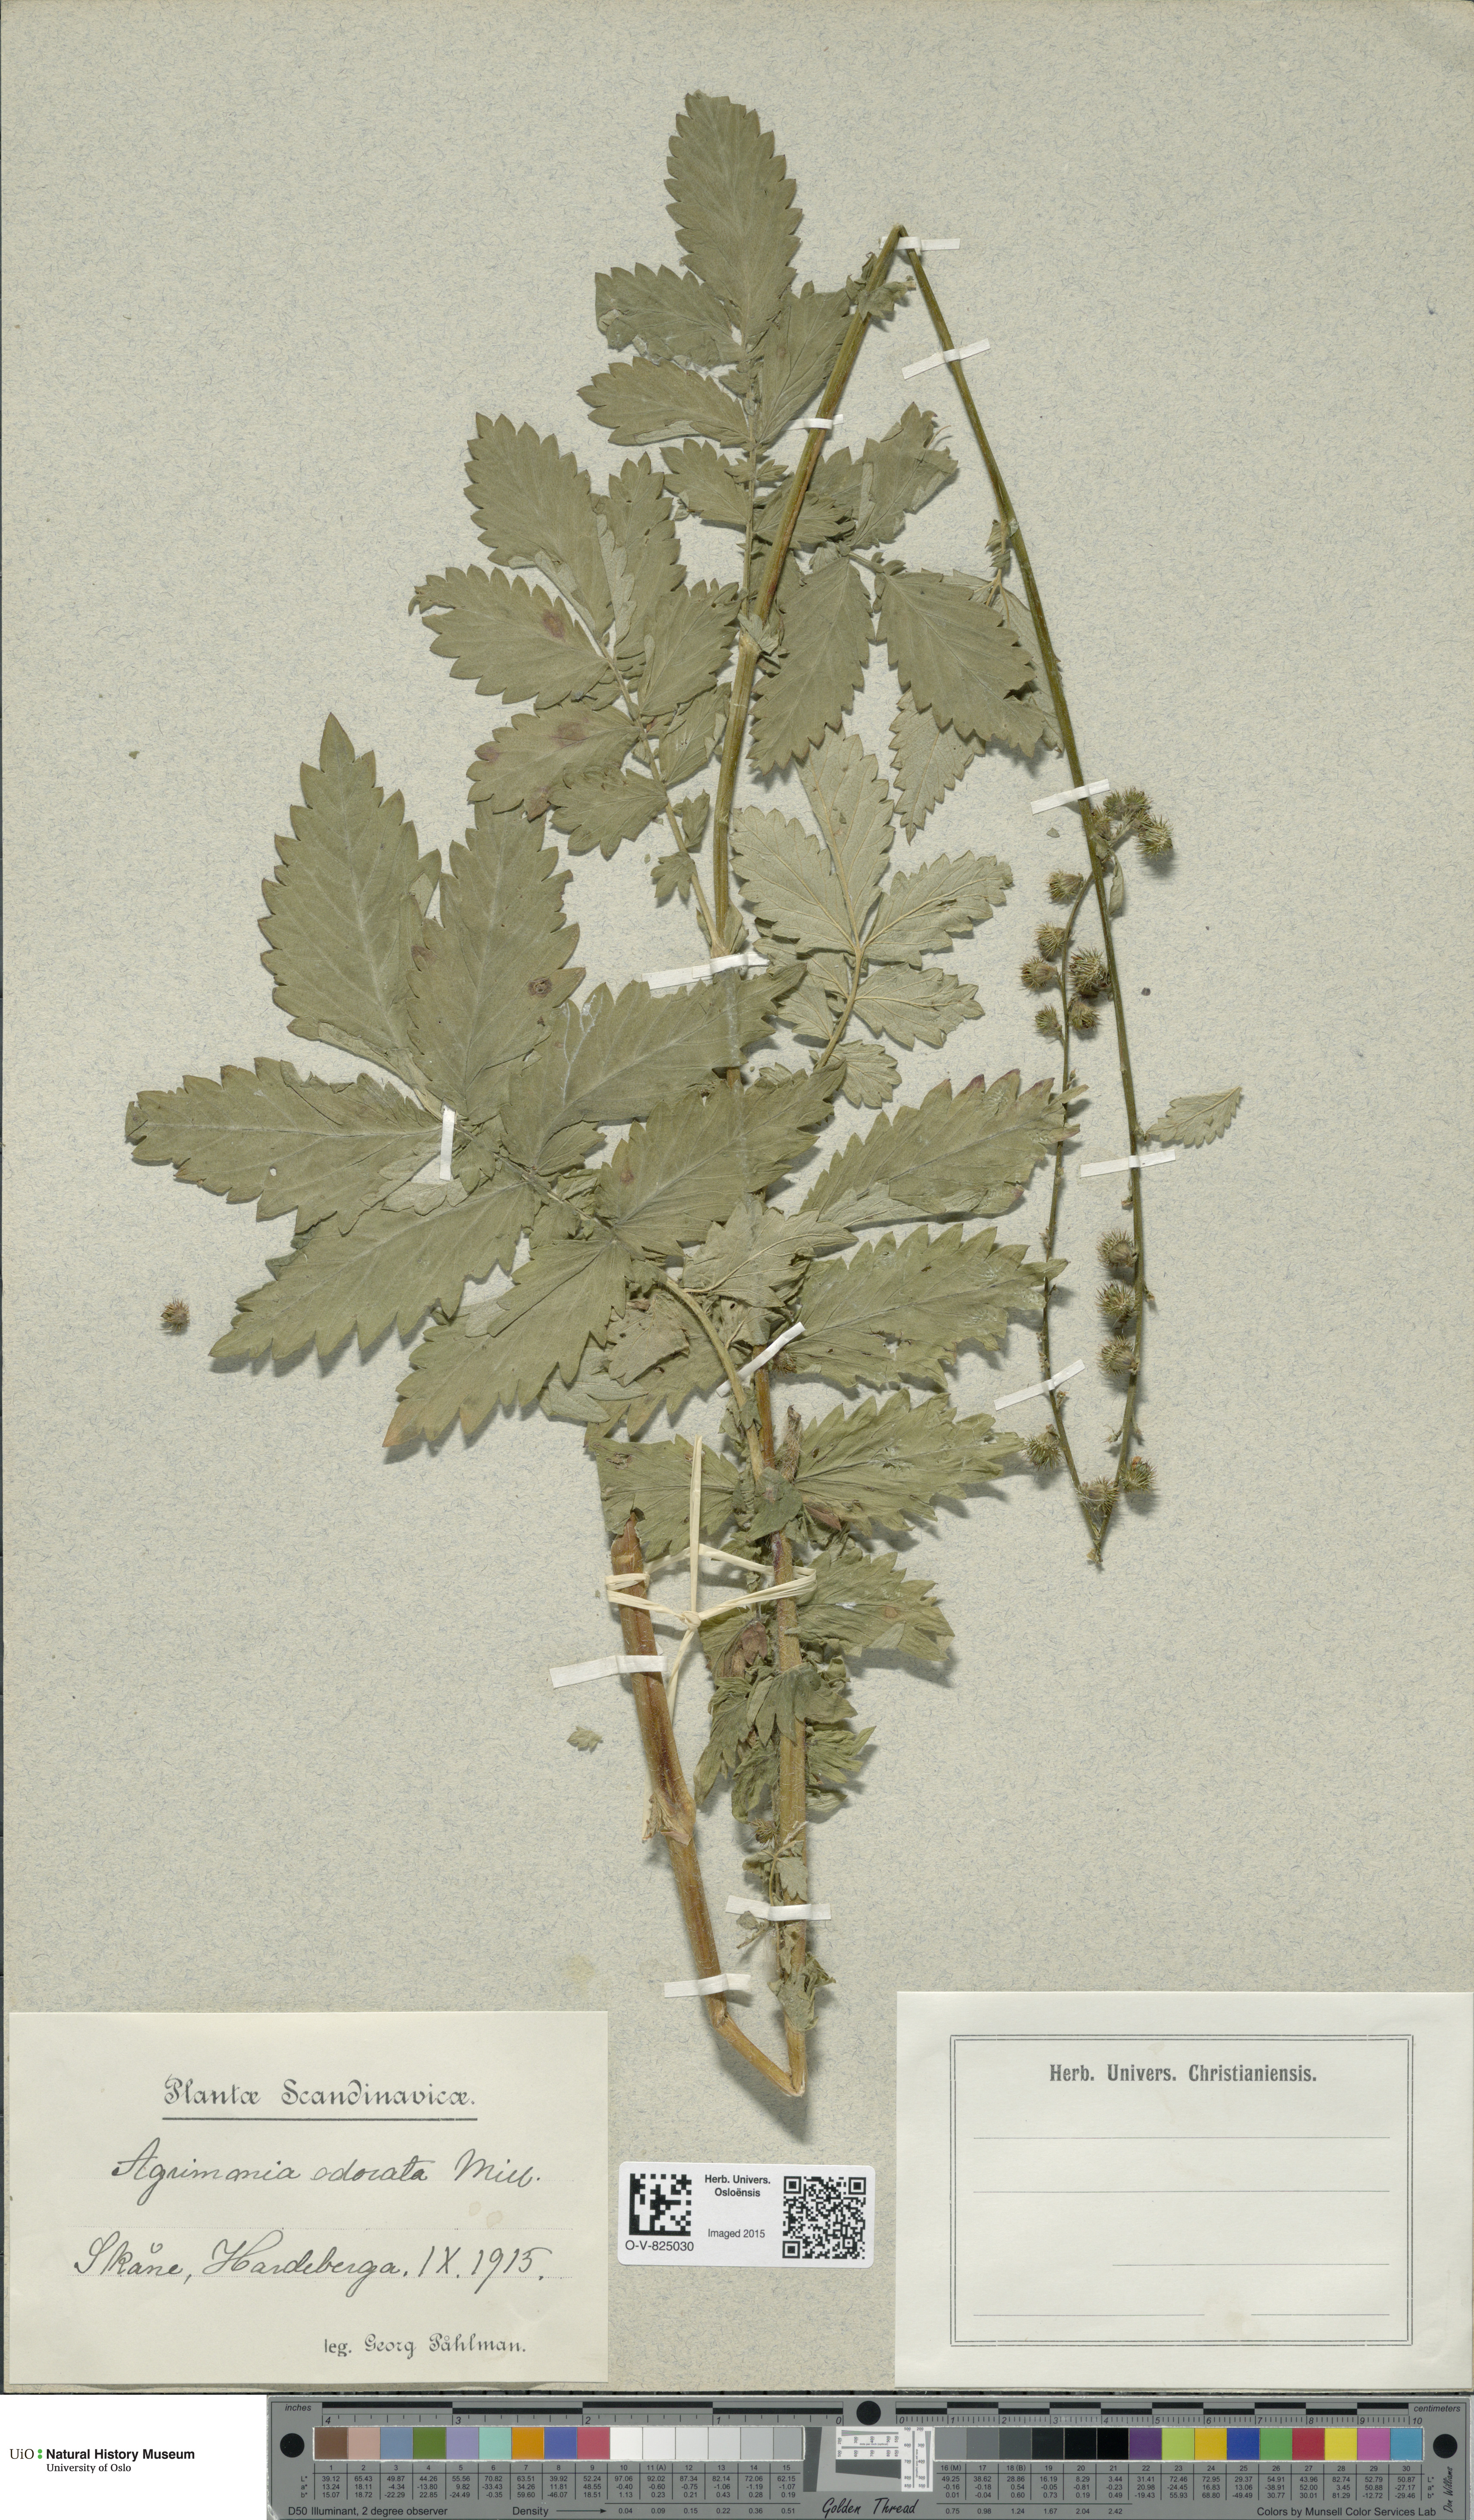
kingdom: Plantae
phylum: Tracheophyta
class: Magnoliopsida
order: Rosales
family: Rosaceae
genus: Agrimonia
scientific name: Agrimonia procera
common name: Fragrant agrimony
